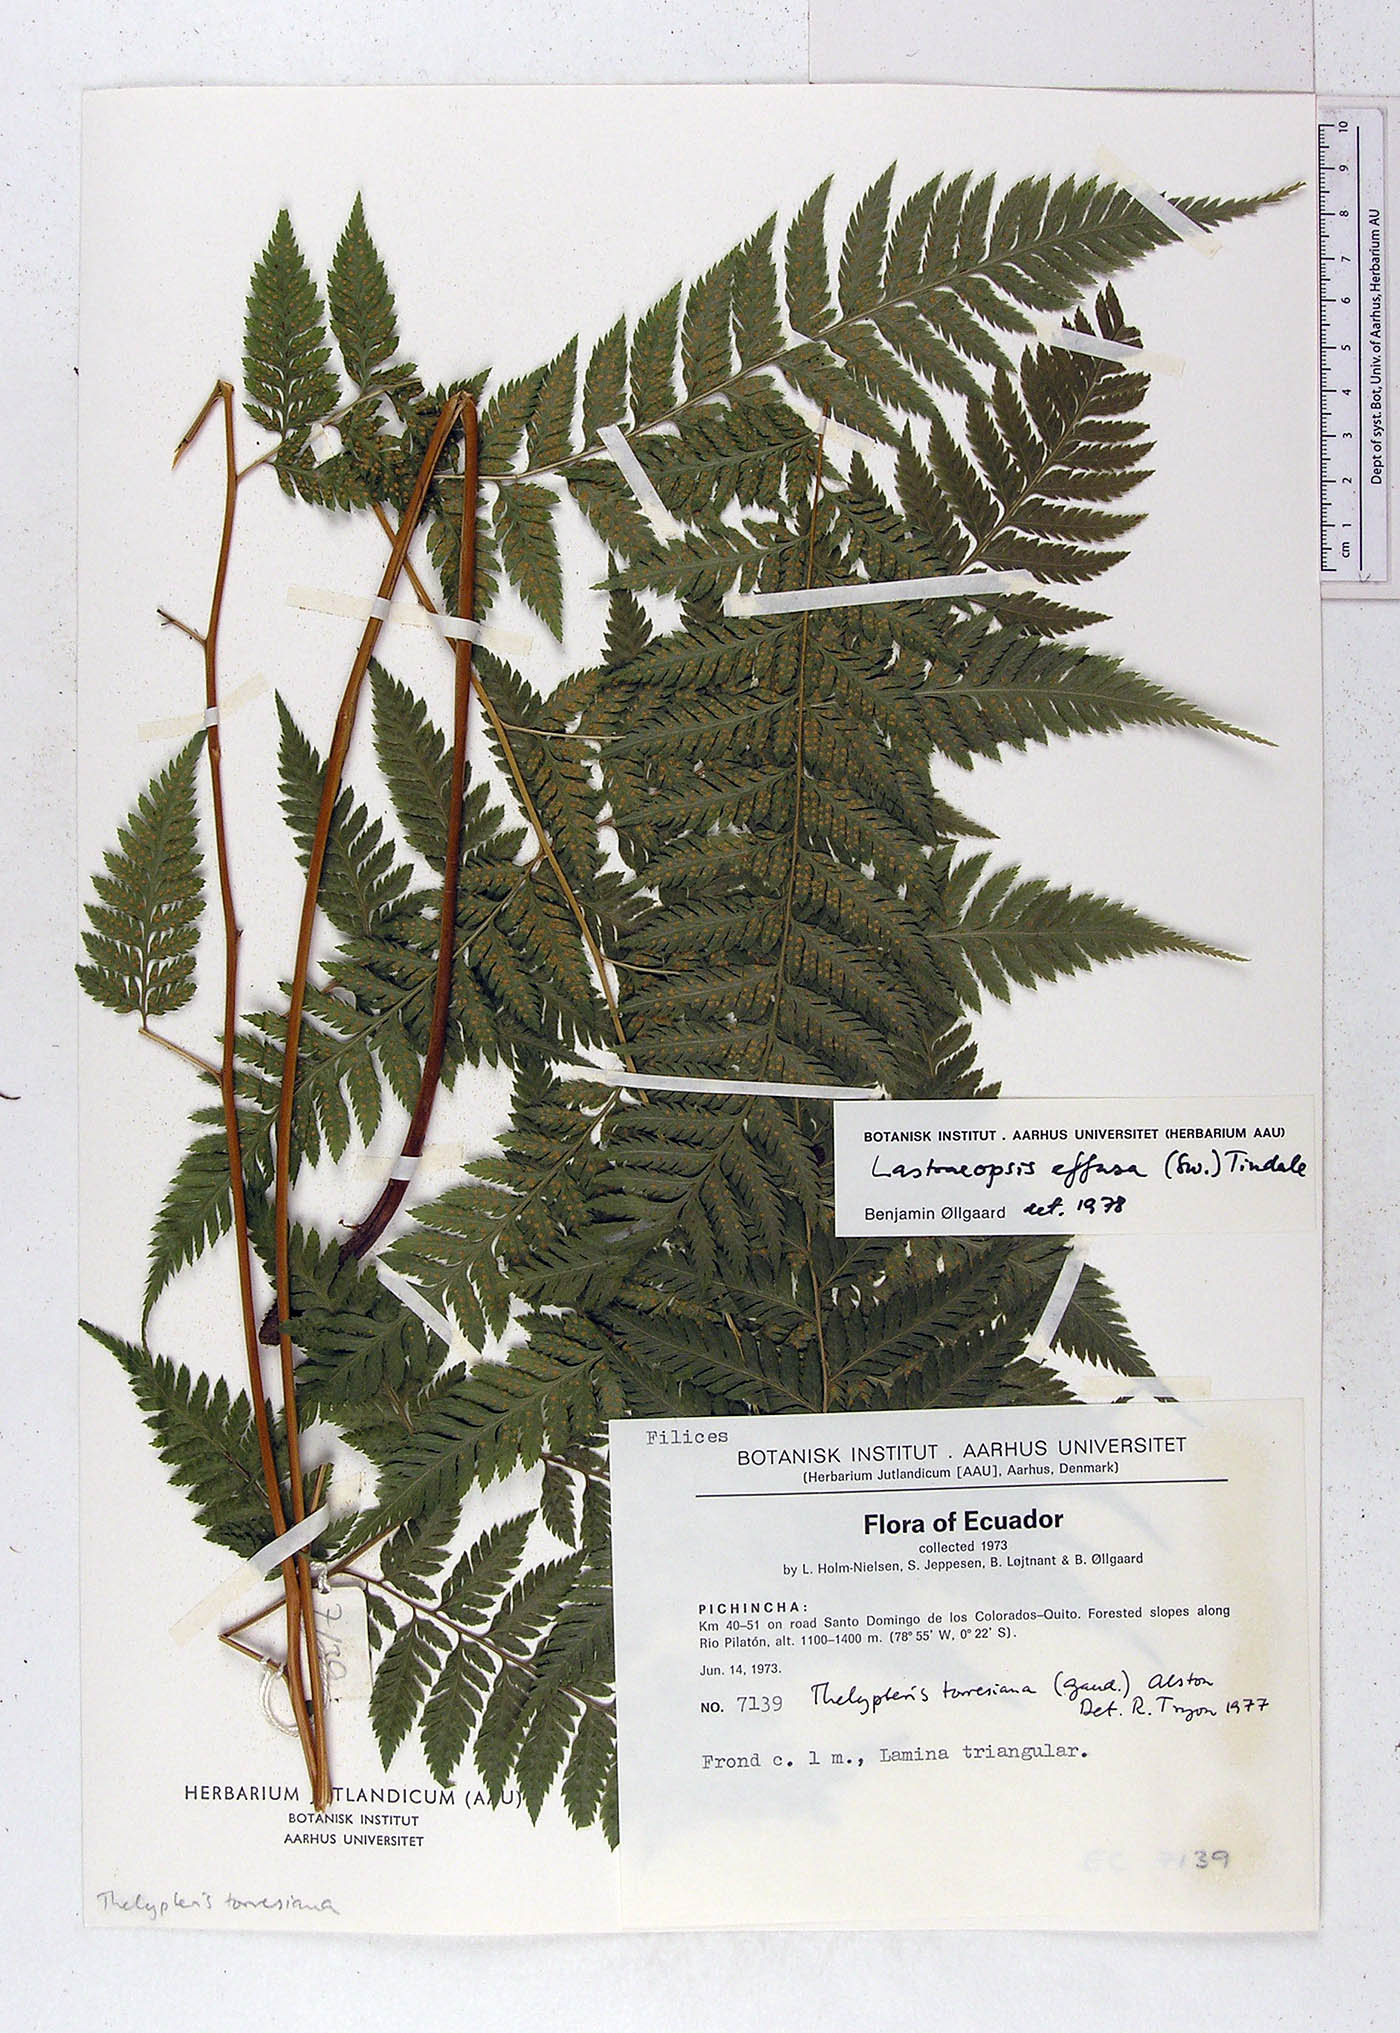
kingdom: Plantae
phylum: Tracheophyta
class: Polypodiopsida
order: Polypodiales
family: Thelypteridaceae
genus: Macrothelypteris
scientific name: Macrothelypteris torresiana
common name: Swordfern
